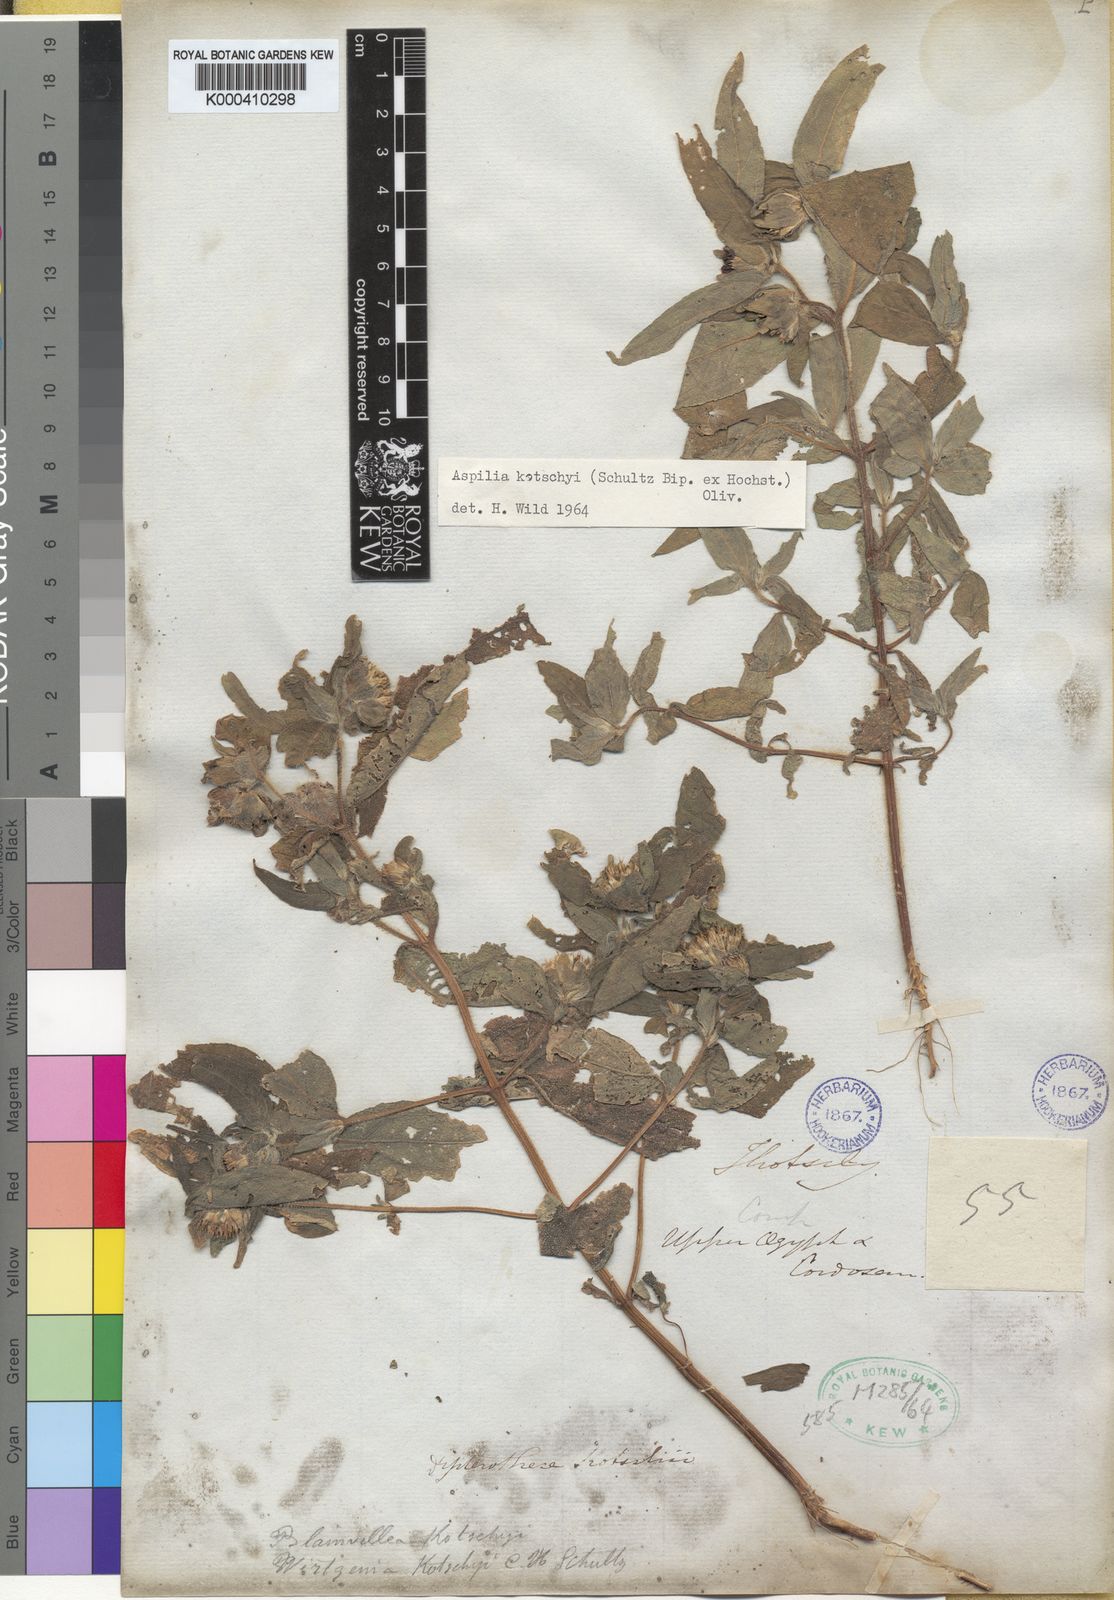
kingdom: Plantae
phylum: Tracheophyta
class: Magnoliopsida
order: Asterales
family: Asteraceae
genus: Aspilia
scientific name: Aspilia kotschyi
